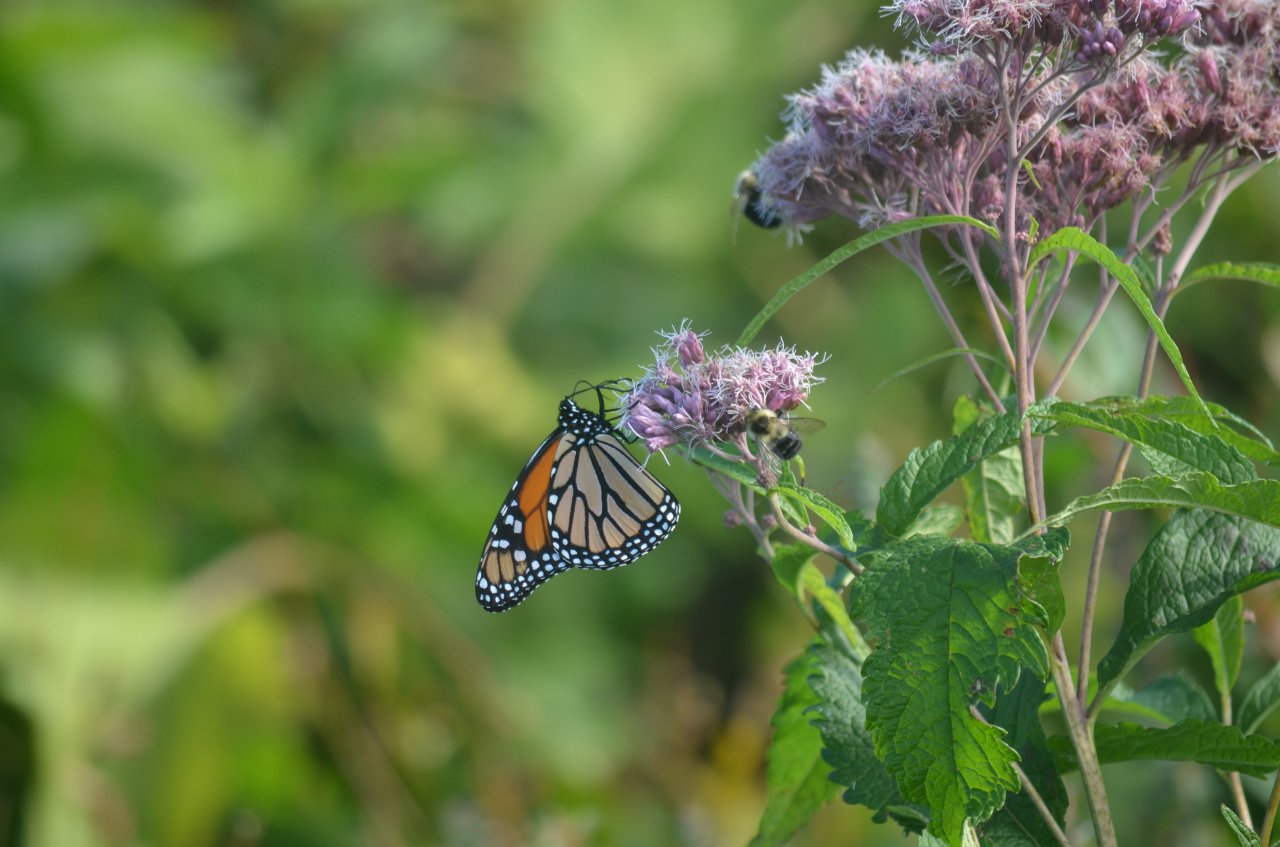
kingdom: Animalia
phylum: Arthropoda
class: Insecta
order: Lepidoptera
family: Nymphalidae
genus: Danaus
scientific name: Danaus plexippus
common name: Monarch
